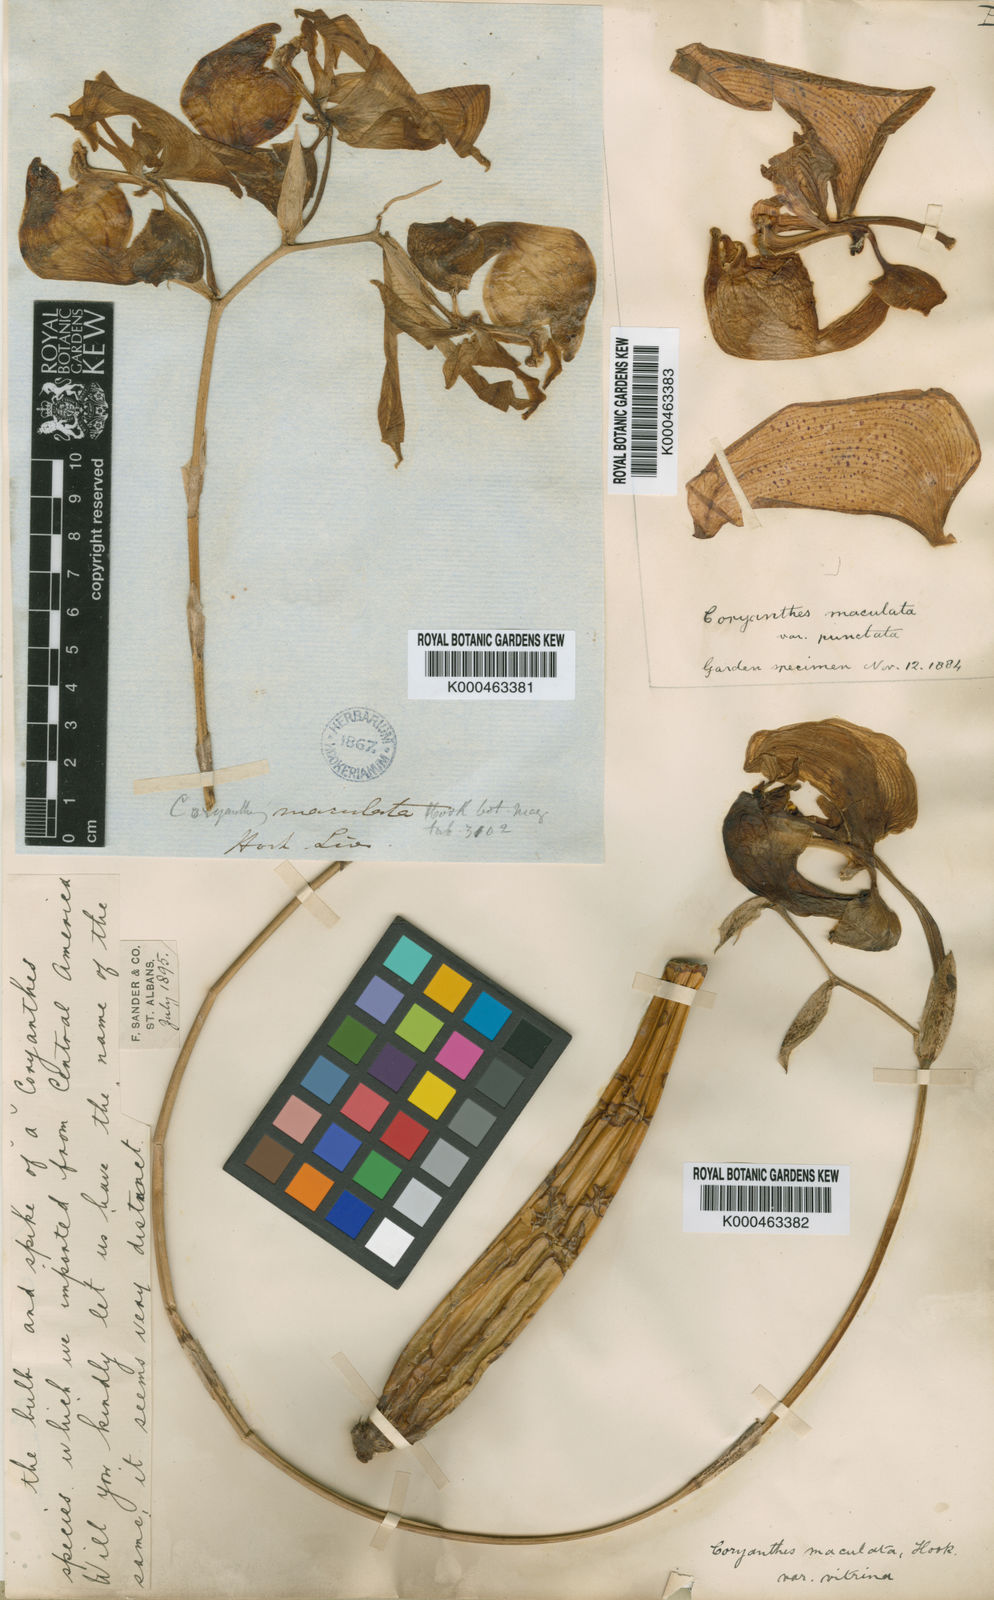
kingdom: Plantae
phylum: Tracheophyta
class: Liliopsida
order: Asparagales
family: Orchidaceae
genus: Coryanthes
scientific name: Coryanthes maculata
